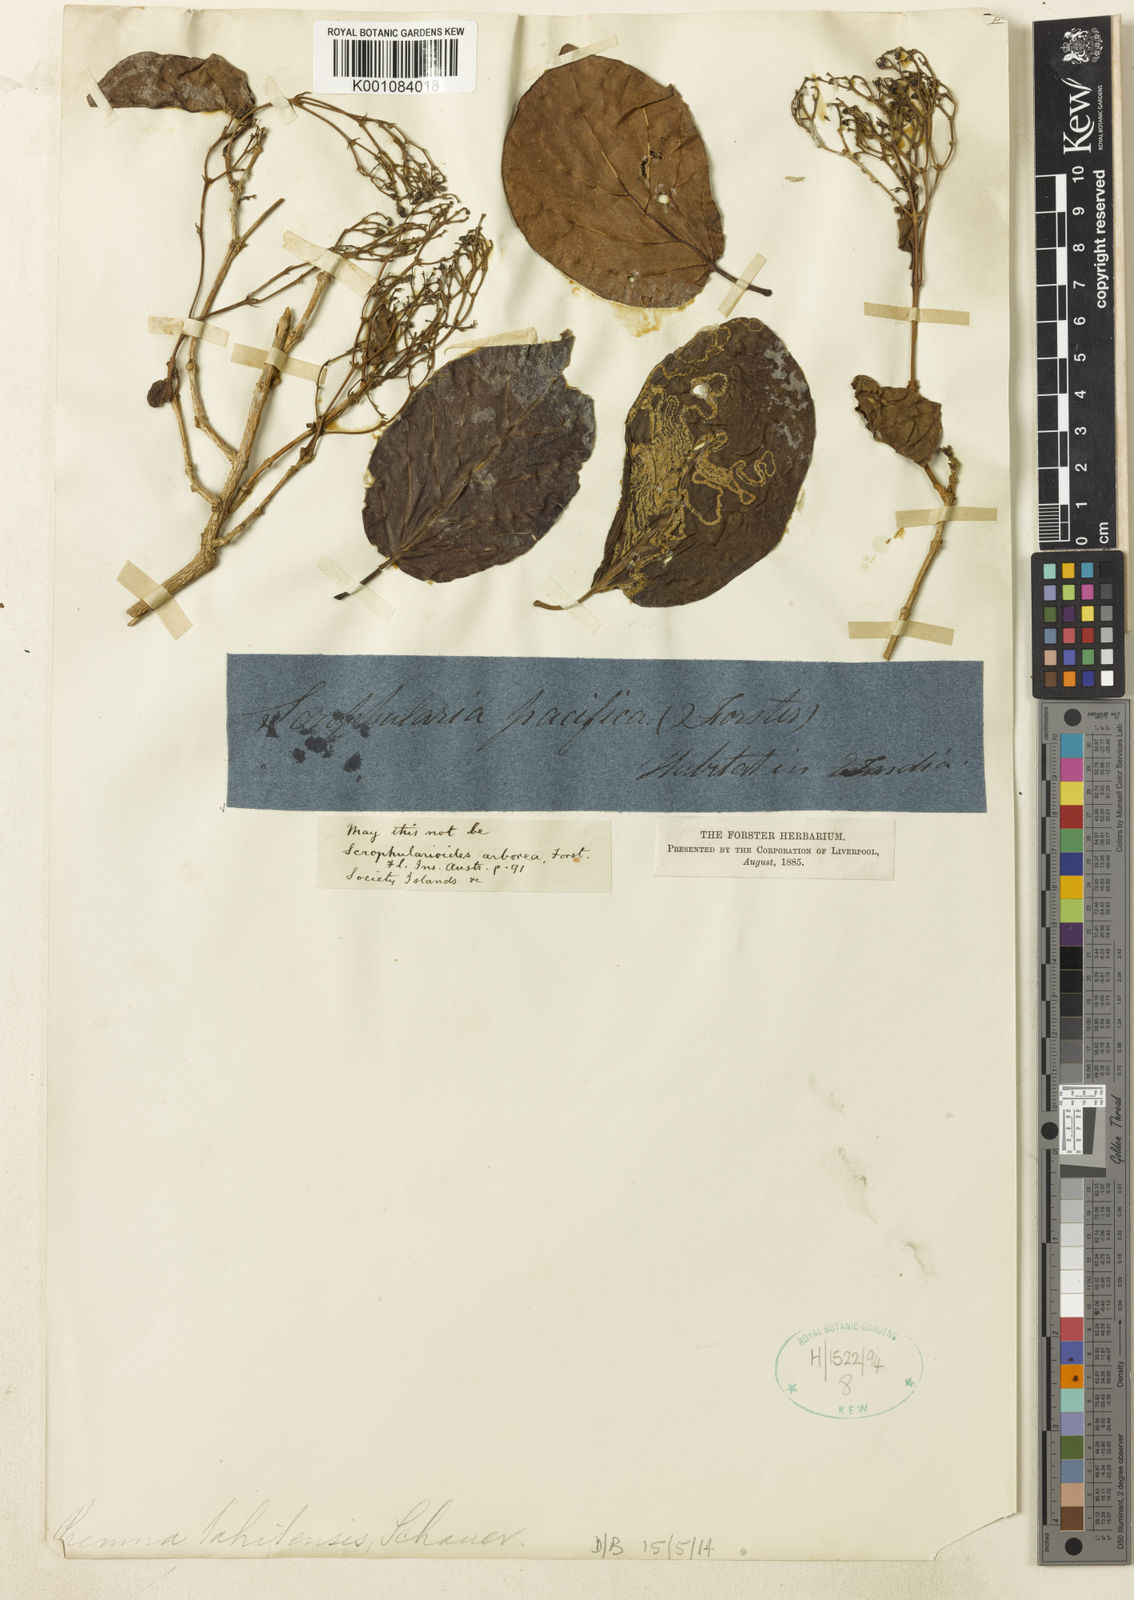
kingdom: Plantae
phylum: Tracheophyta
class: Magnoliopsida
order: Lamiales
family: Lamiaceae
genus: Premna
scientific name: Premna serratifolia
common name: Bastard guelder
